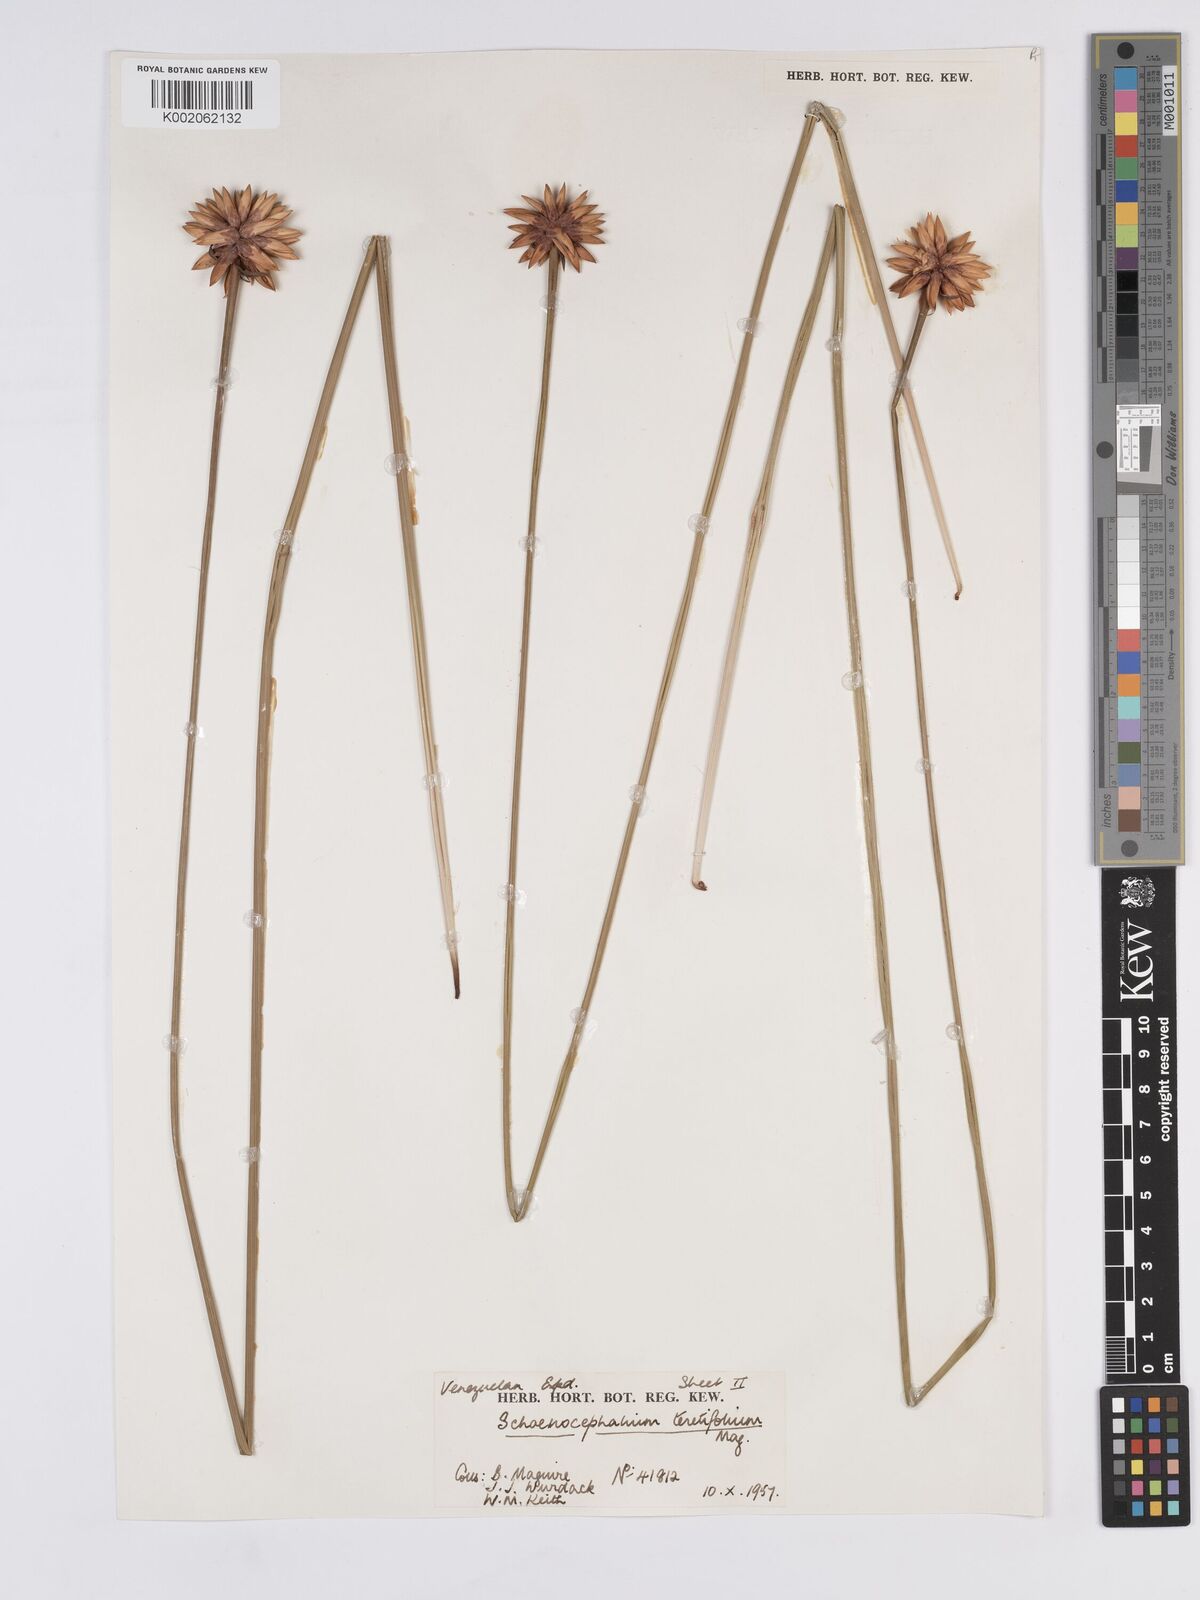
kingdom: Plantae
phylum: Tracheophyta
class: Liliopsida
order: Poales
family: Rapateaceae
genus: Schoenocephalium
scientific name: Schoenocephalium teretifolium
